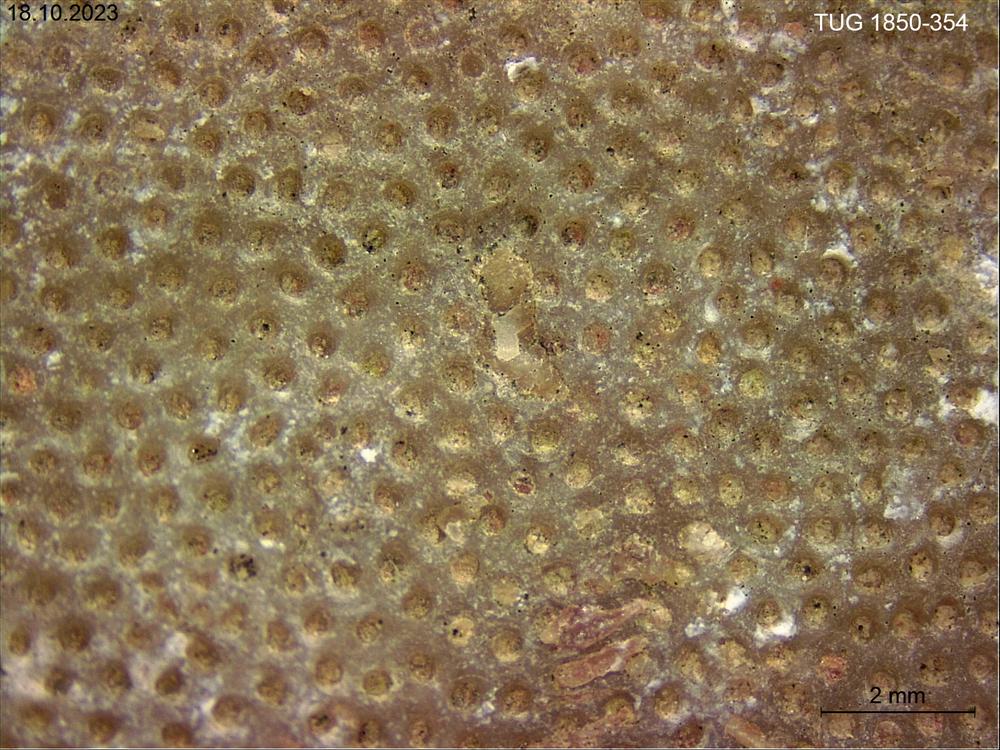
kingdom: Animalia
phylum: Mollusca
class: Gastropoda
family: Euomphalidae
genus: Poleumita
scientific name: Poleumita
